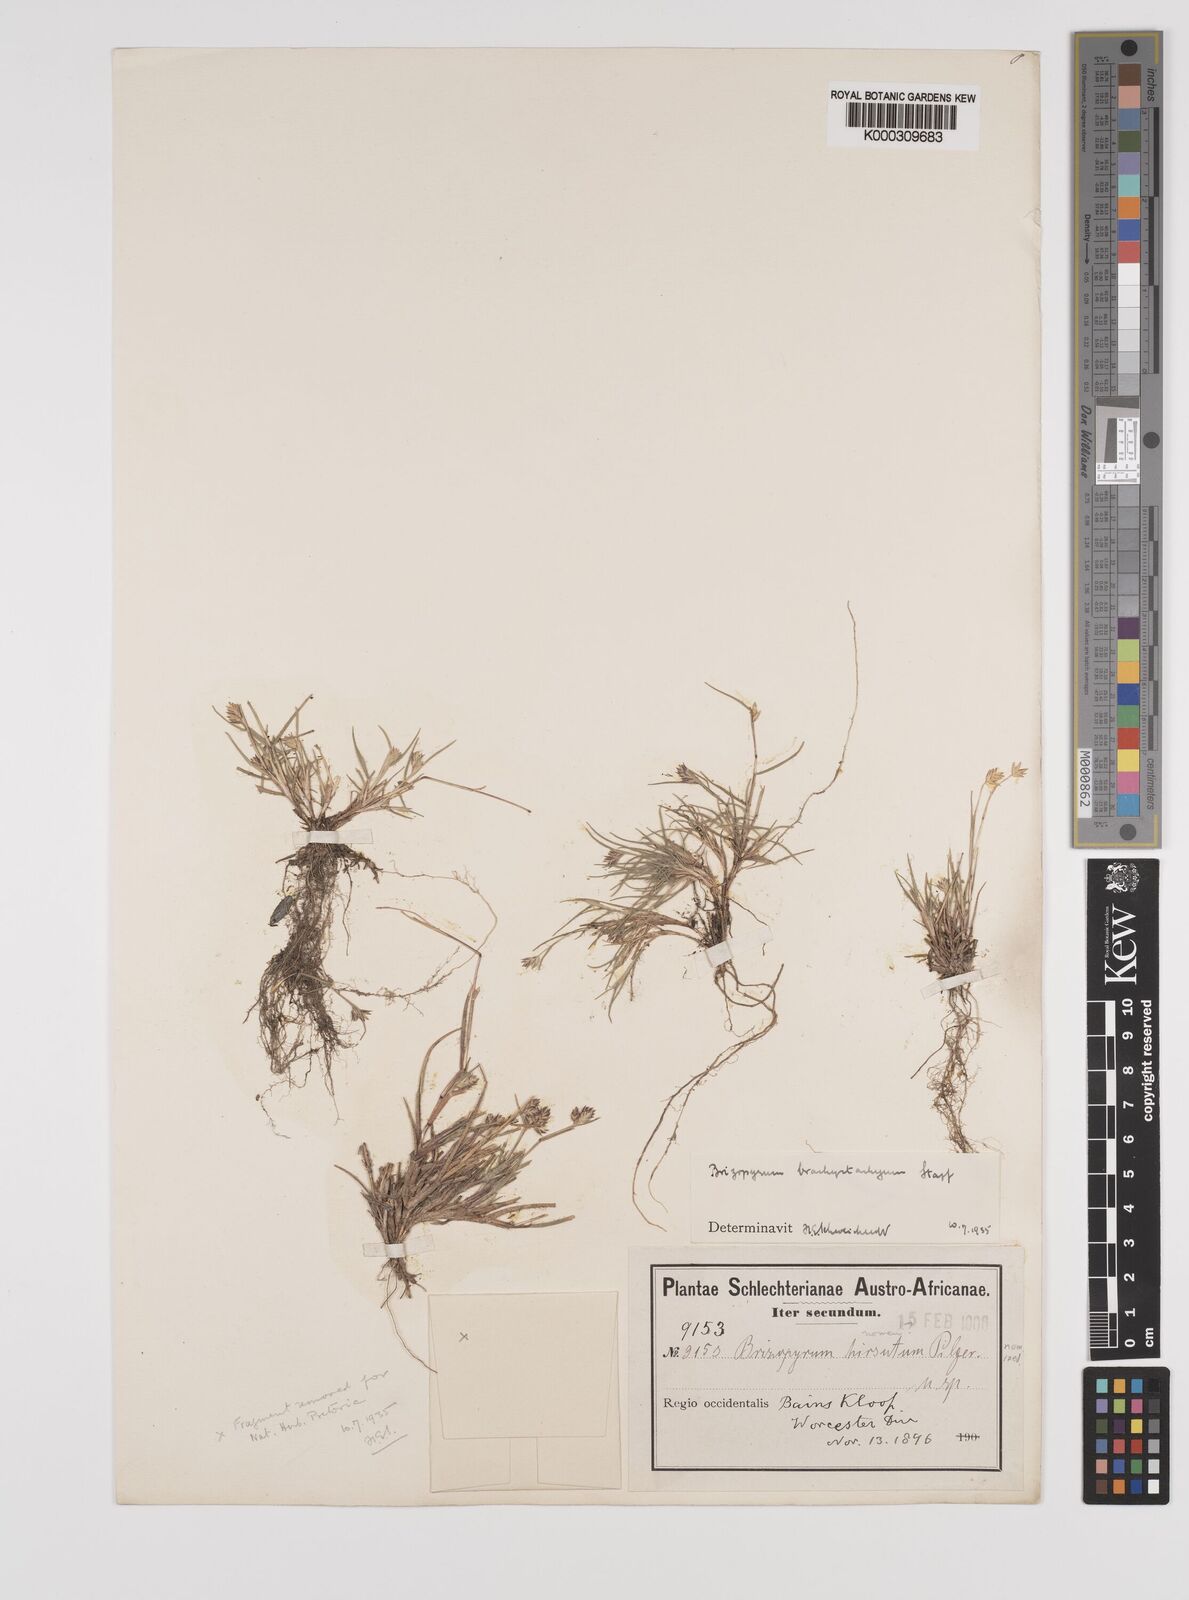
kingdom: Plantae
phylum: Tracheophyta
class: Liliopsida
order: Poales
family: Poaceae
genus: Tribolium
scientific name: Tribolium brachystachyum
